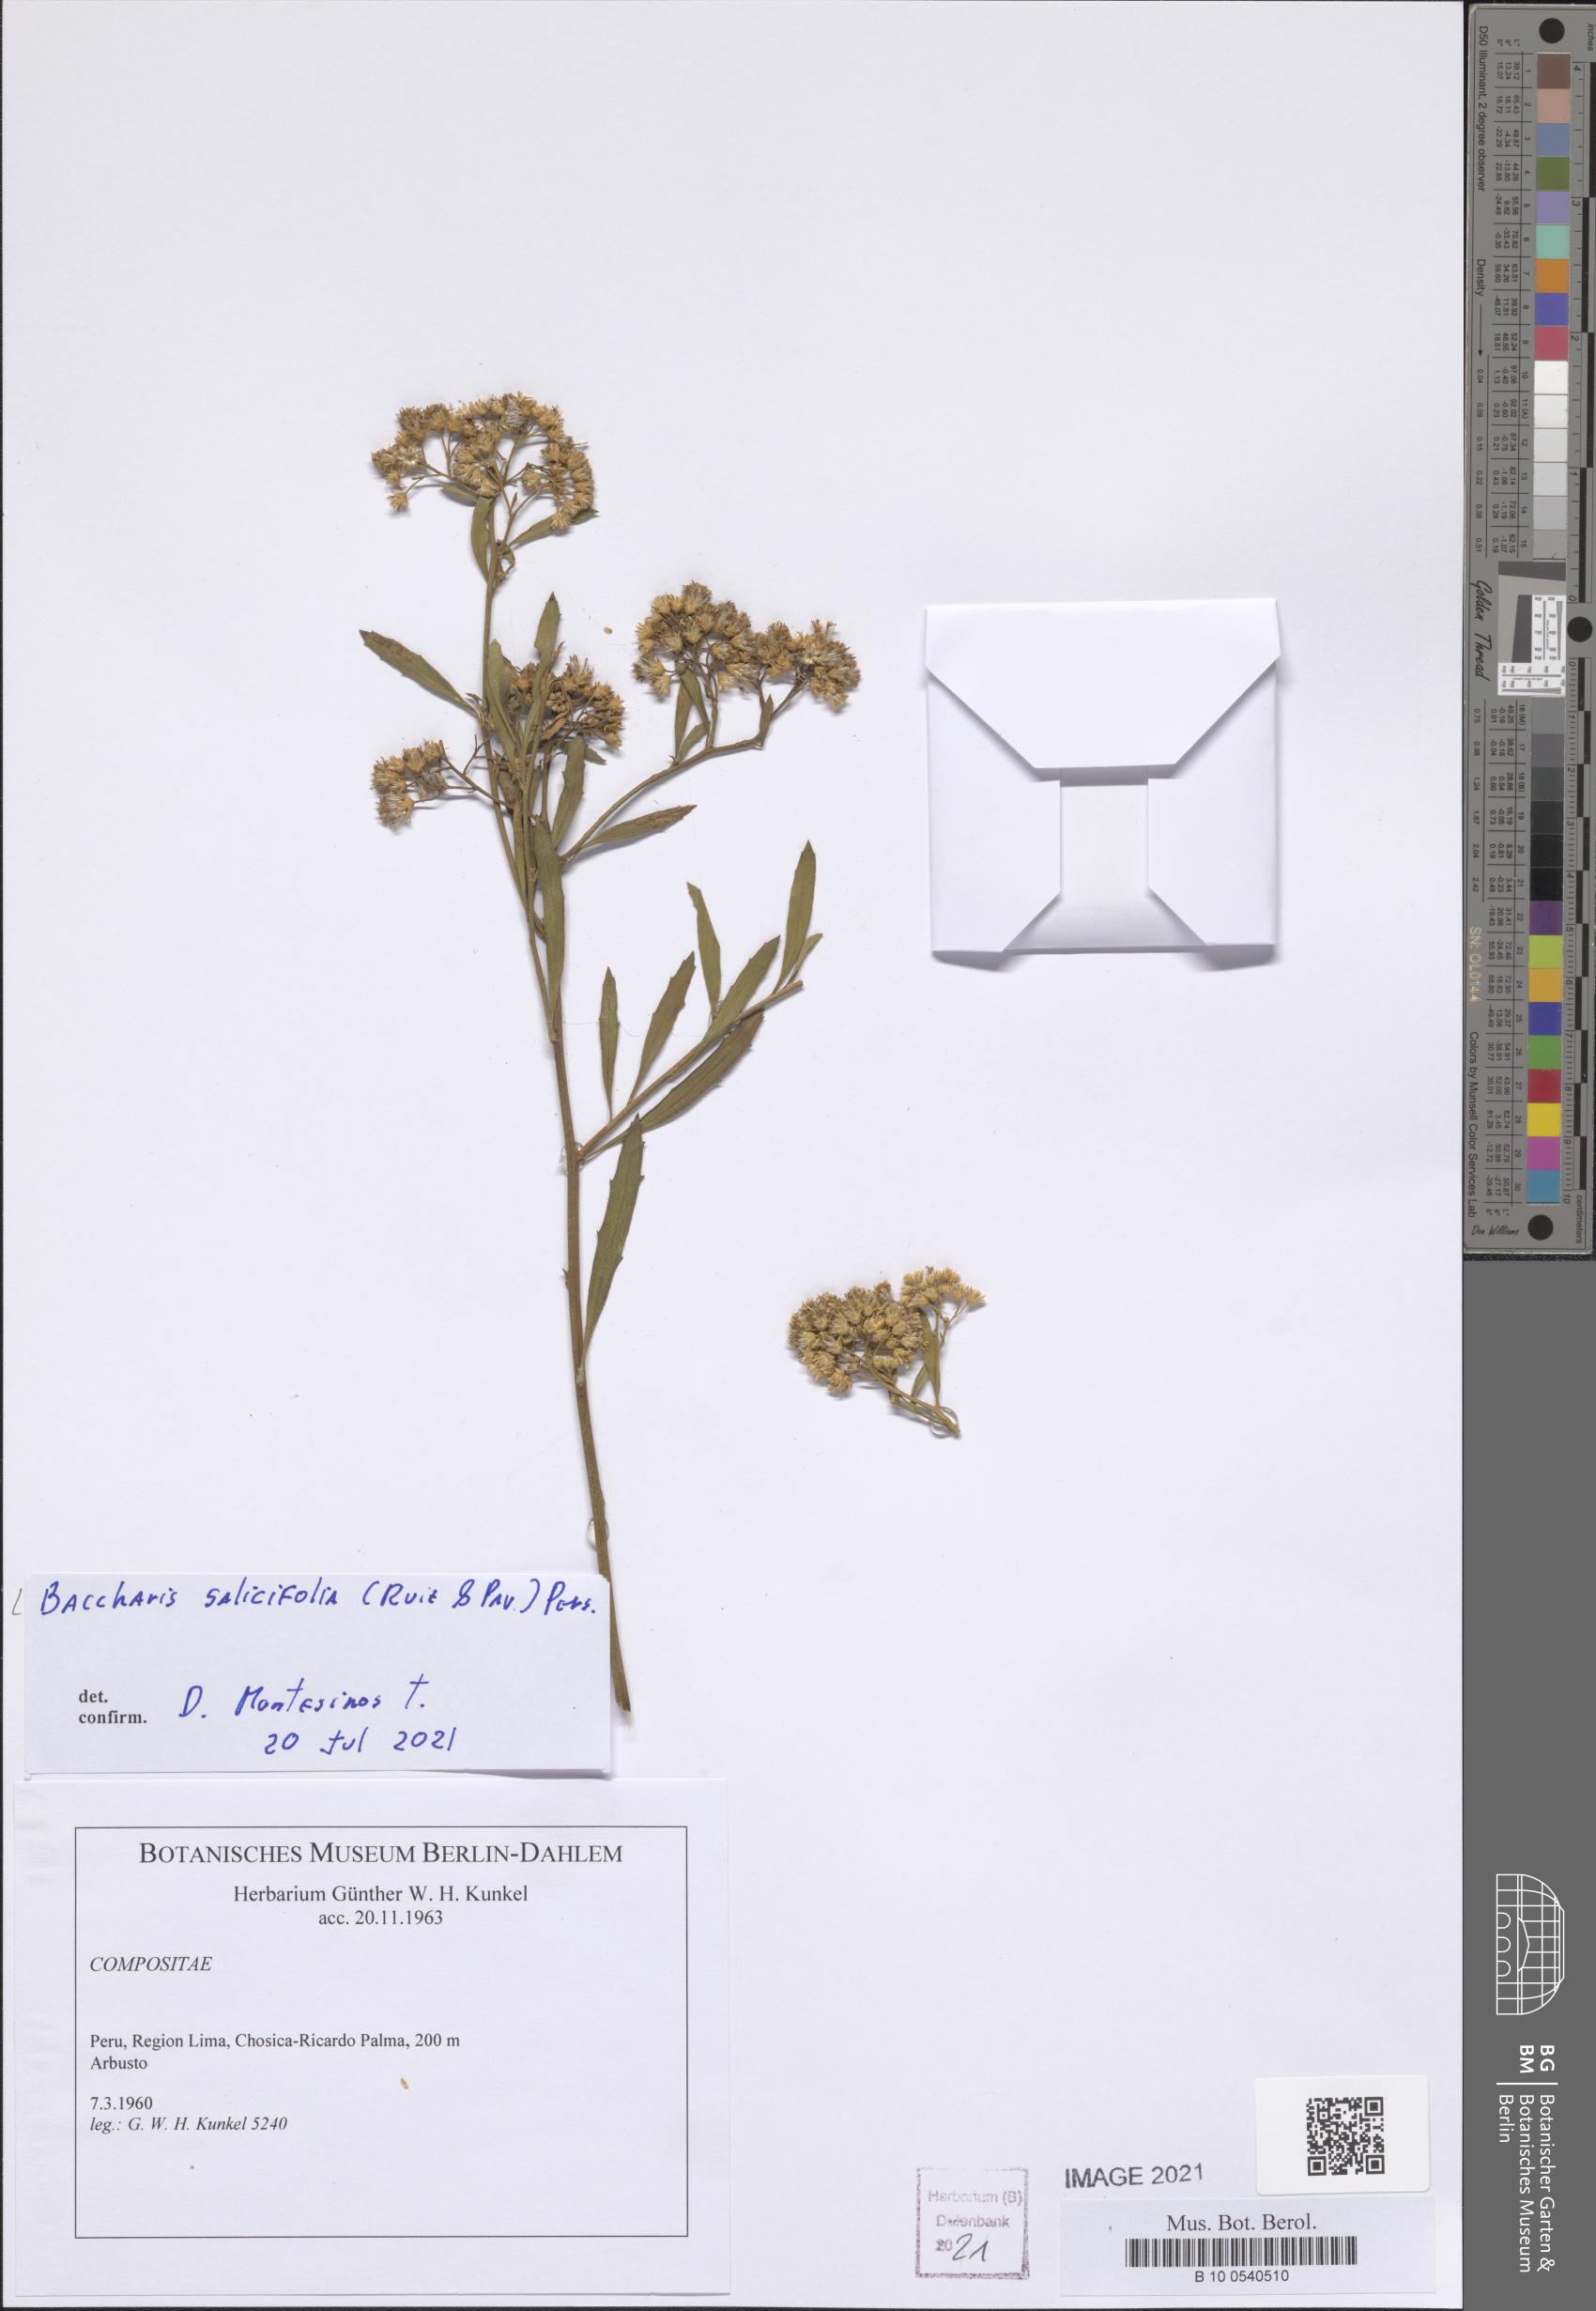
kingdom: Plantae
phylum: Tracheophyta
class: Magnoliopsida
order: Asterales
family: Asteraceae
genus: Baccharis
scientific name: Baccharis salicifolia
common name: Sticky baccharis
